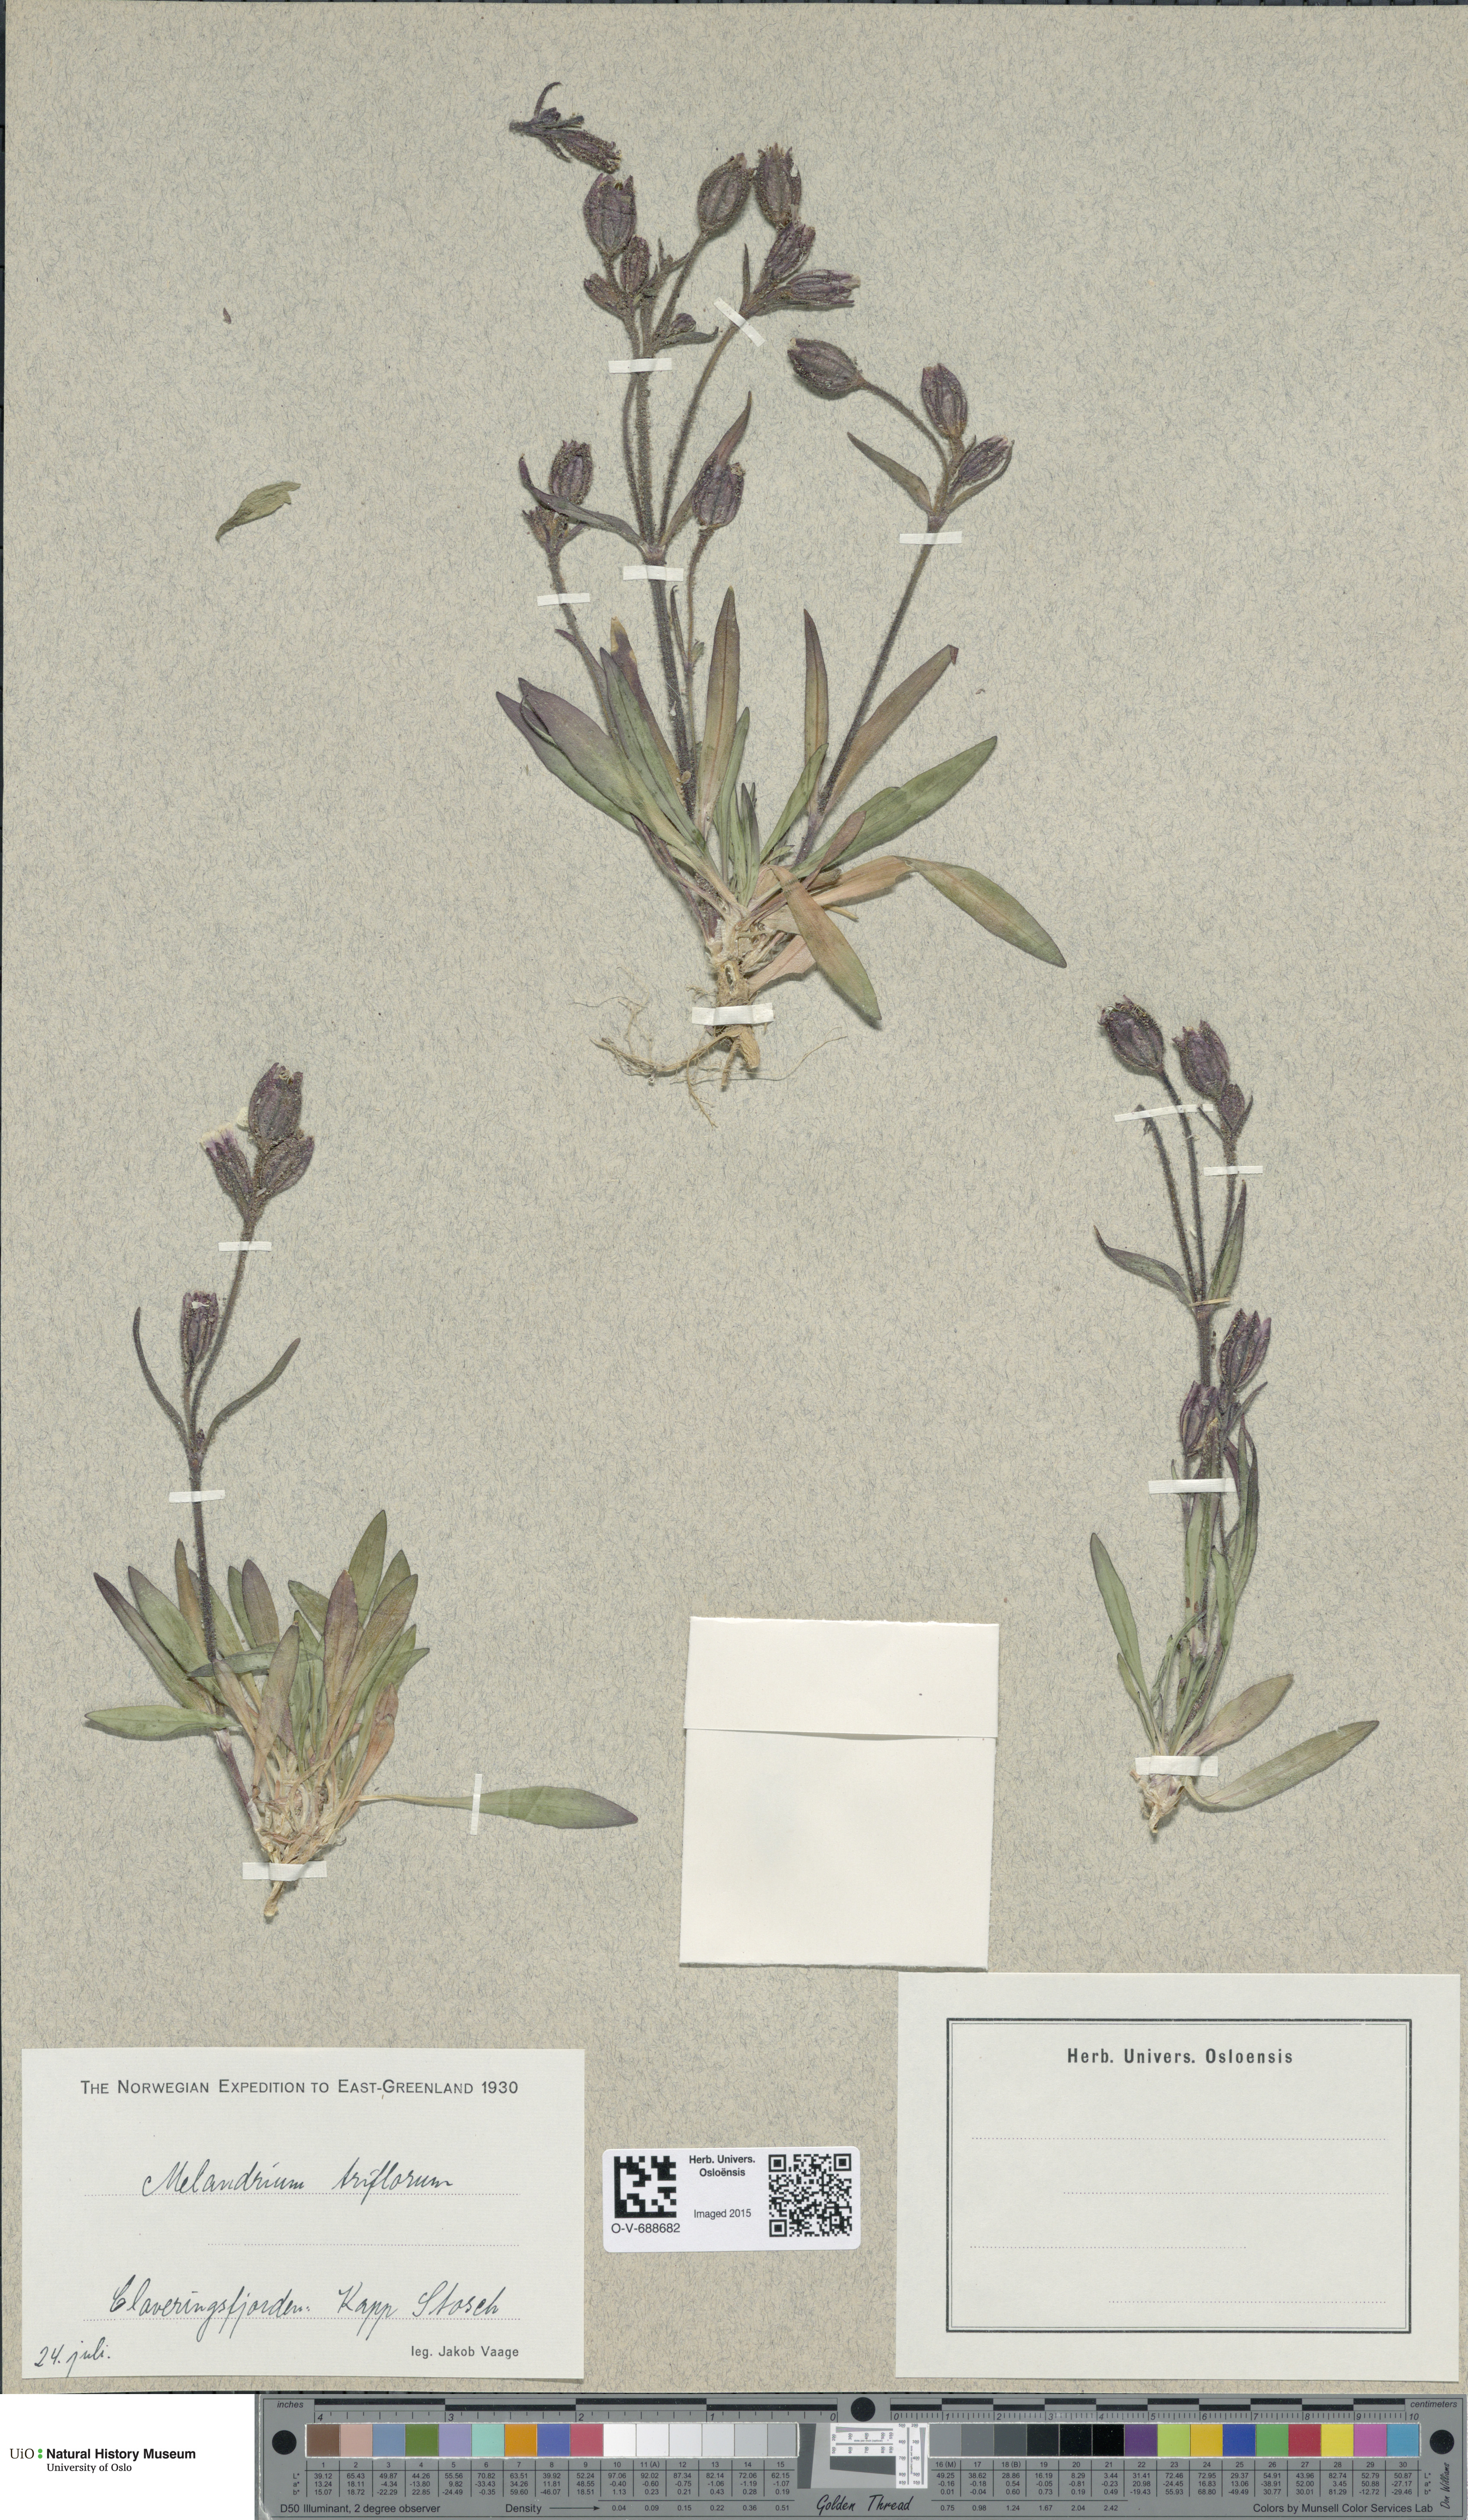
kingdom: Plantae
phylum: Tracheophyta
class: Magnoliopsida
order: Caryophyllales
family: Caryophyllaceae
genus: Silene
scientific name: Silene sorensenis
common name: Sorensen's campion
